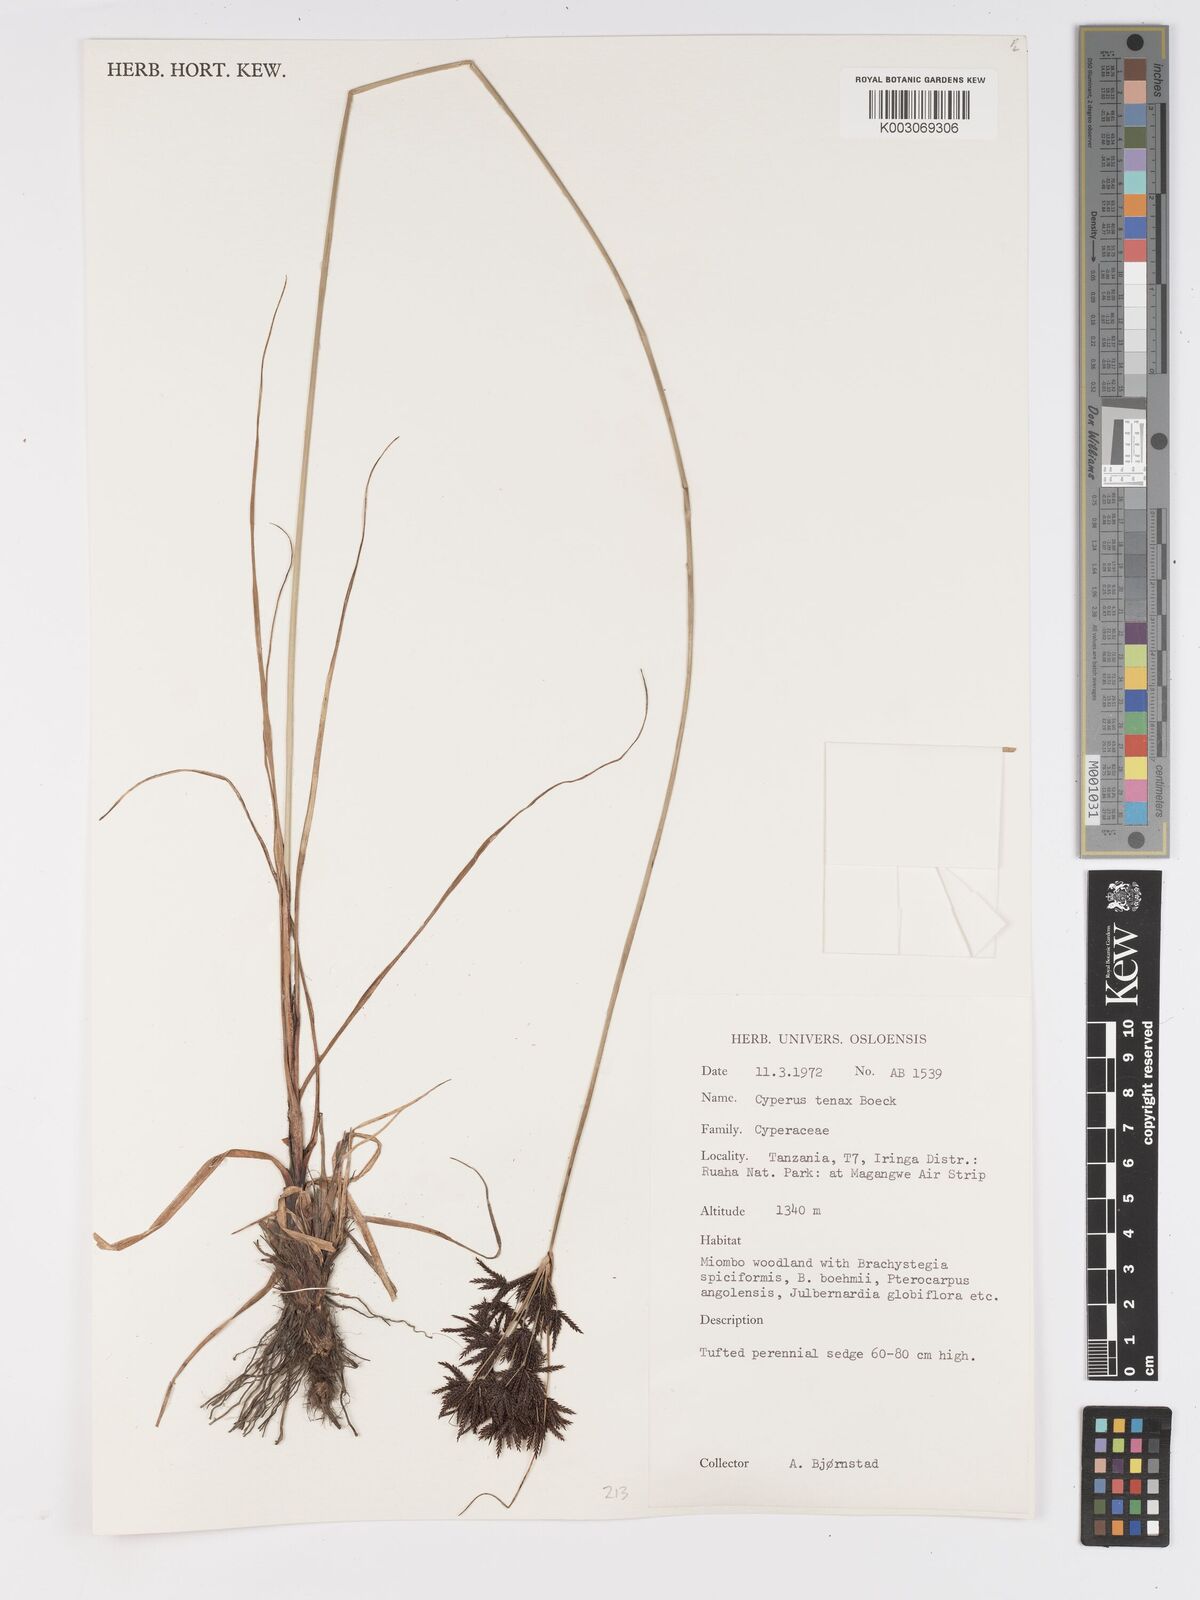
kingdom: Plantae
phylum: Tracheophyta
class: Liliopsida
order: Poales
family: Cyperaceae
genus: Cyperus
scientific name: Cyperus tenax
